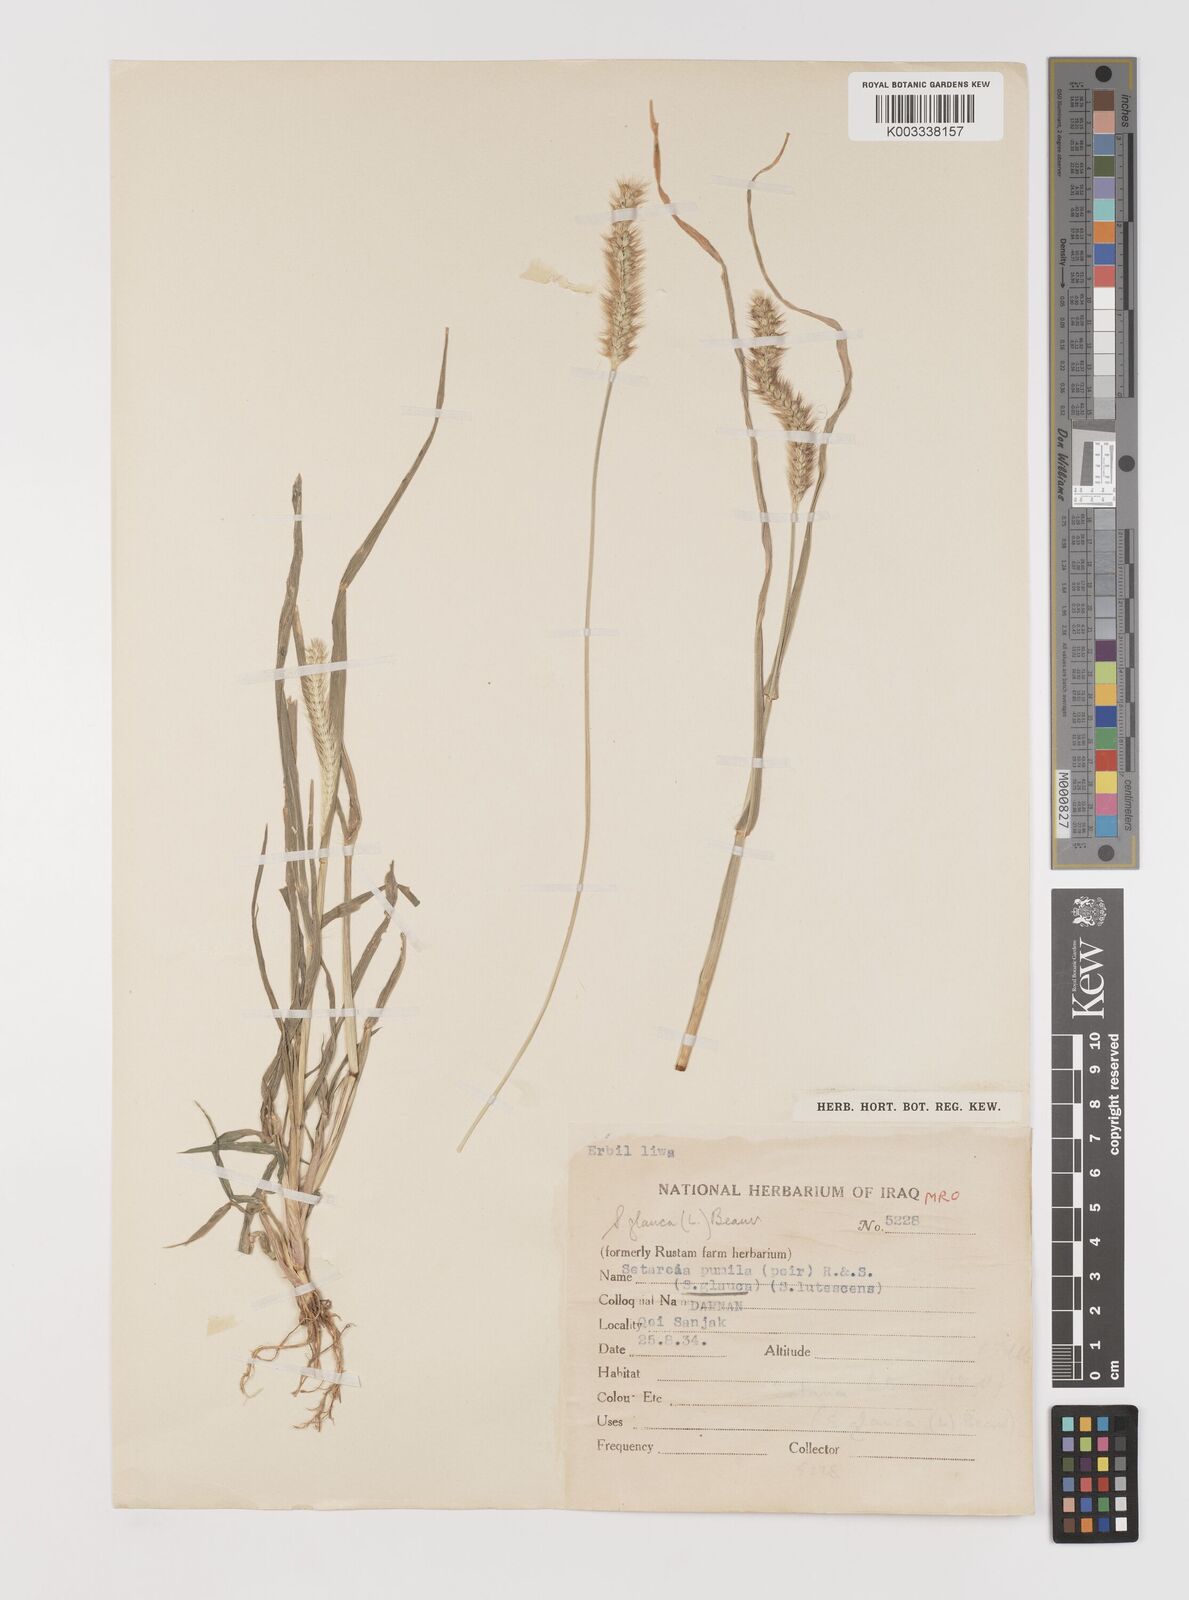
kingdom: Plantae
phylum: Tracheophyta
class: Liliopsida
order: Poales
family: Poaceae
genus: Setaria
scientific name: Setaria pumila
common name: Yellow bristle-grass
